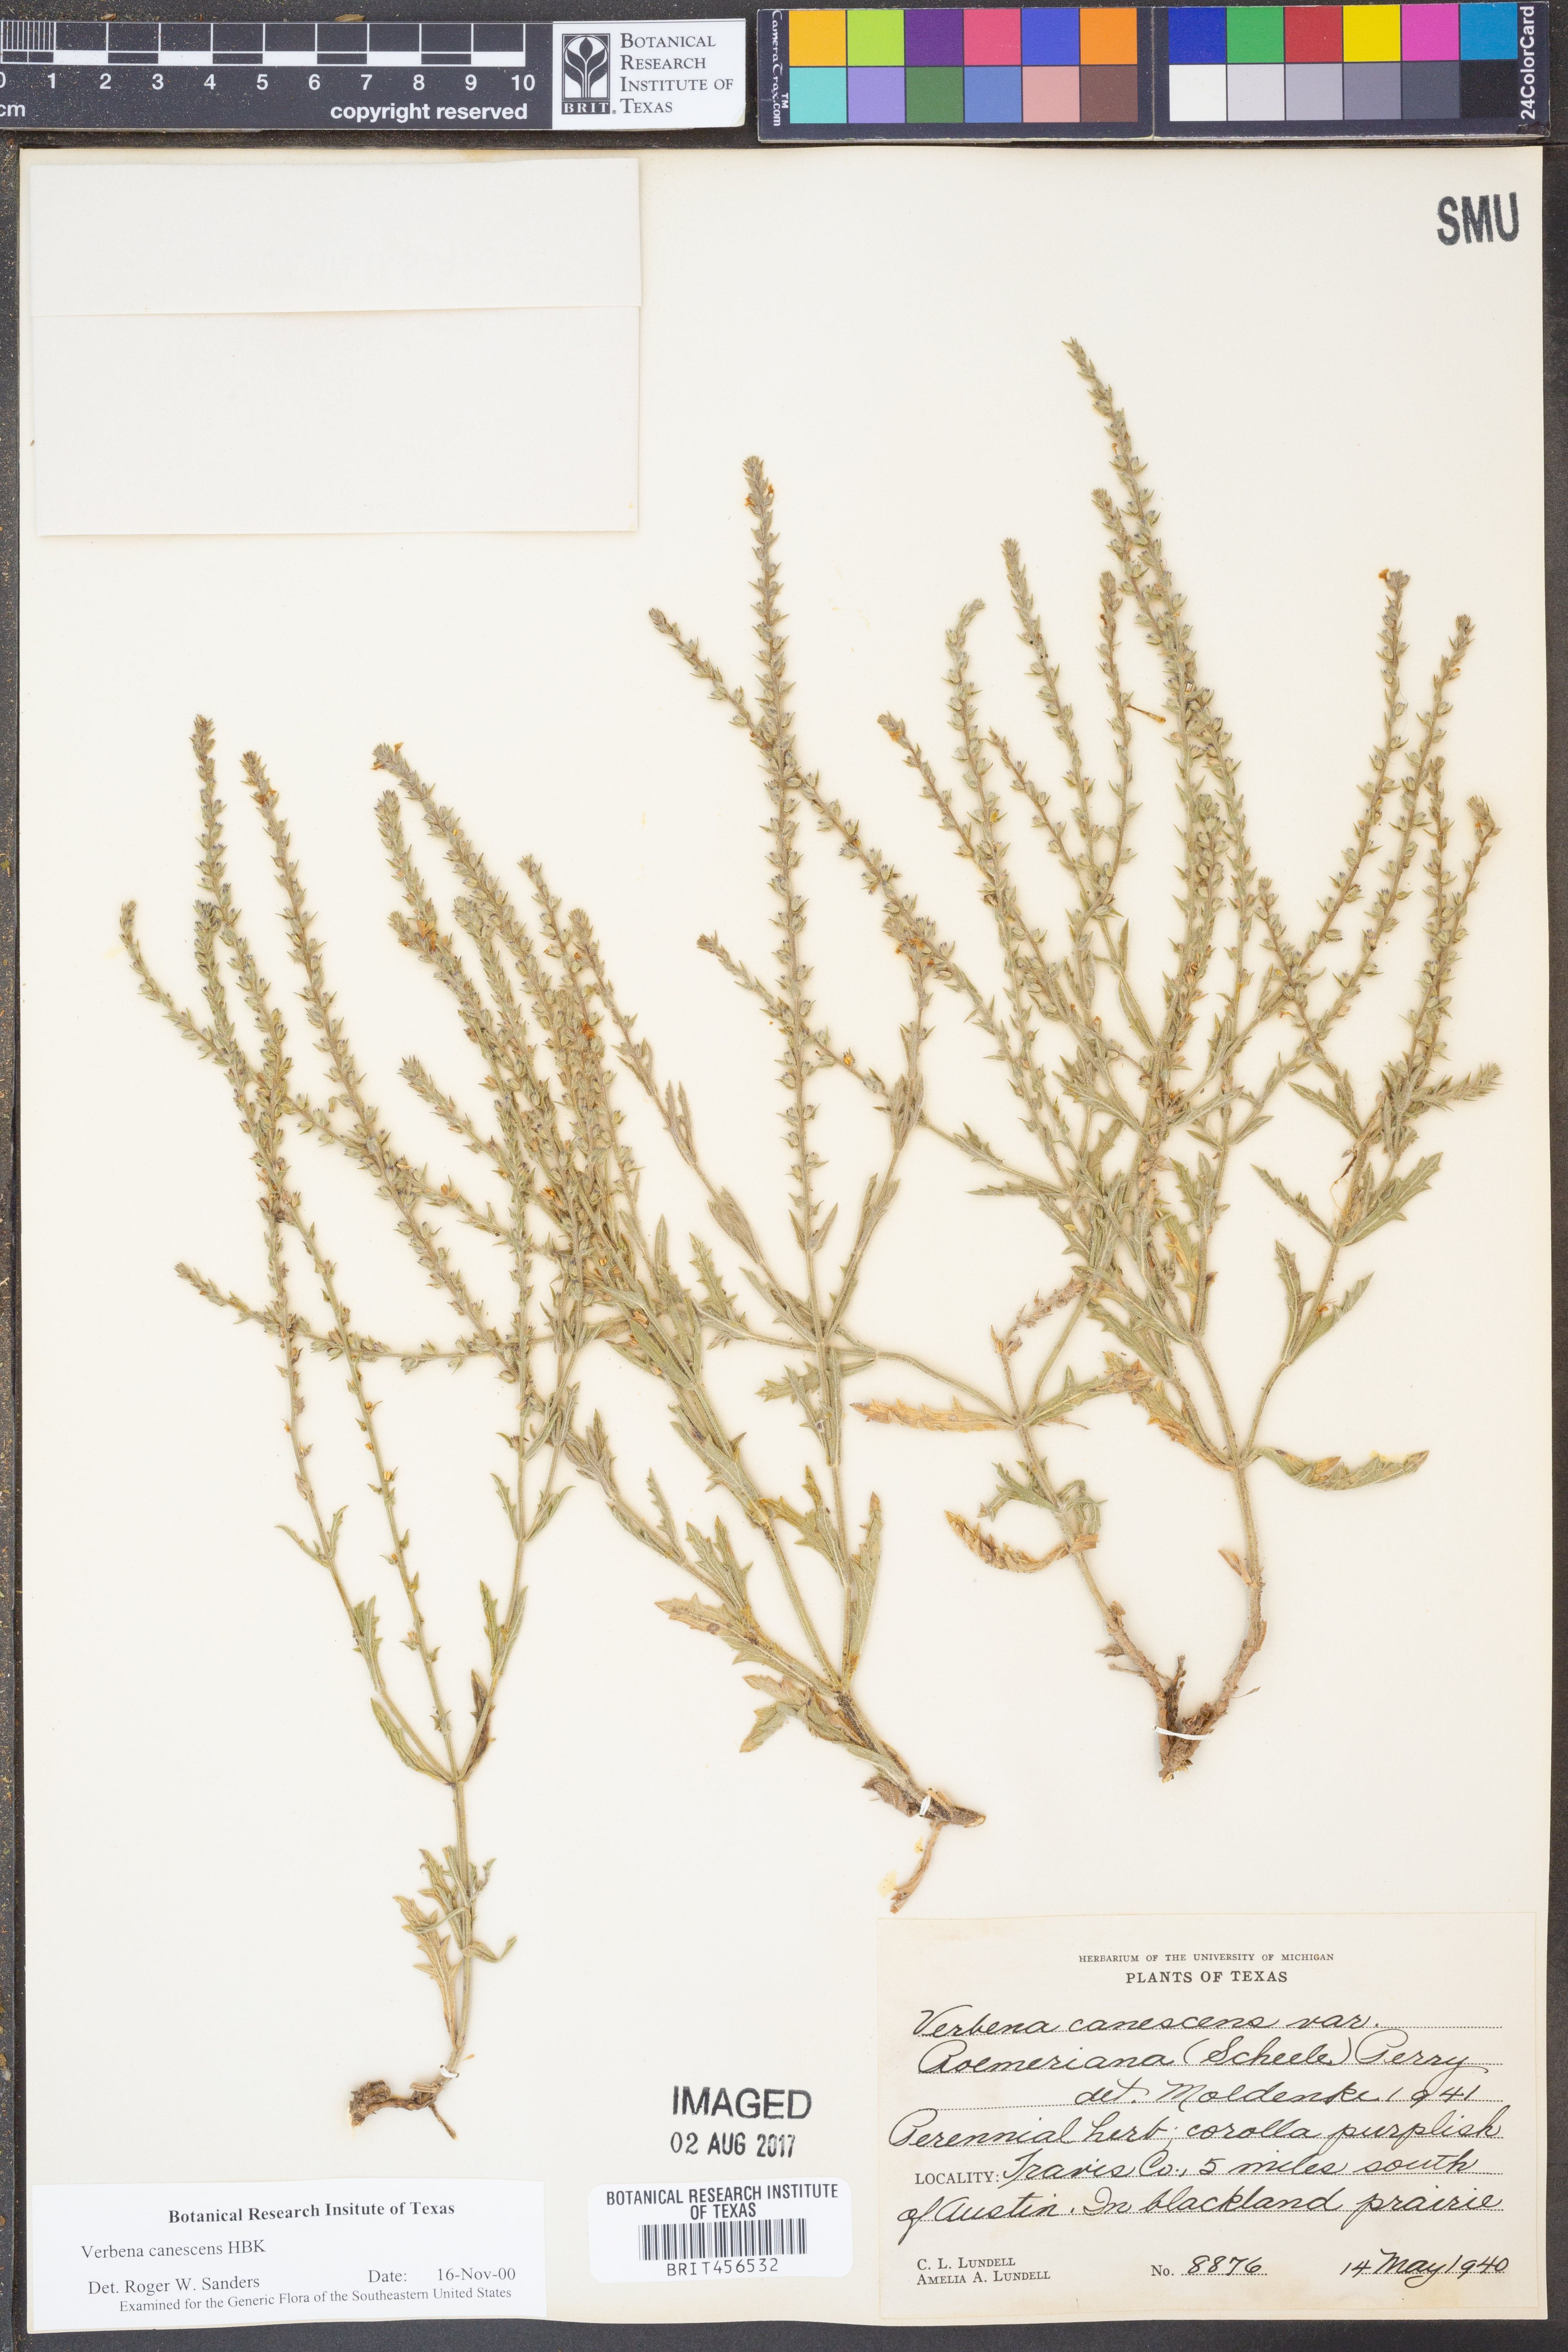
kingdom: Plantae
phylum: Tracheophyta
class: Magnoliopsida
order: Lamiales
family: Verbenaceae
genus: Verbena
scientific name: Verbena canescens
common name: Gray vervain
